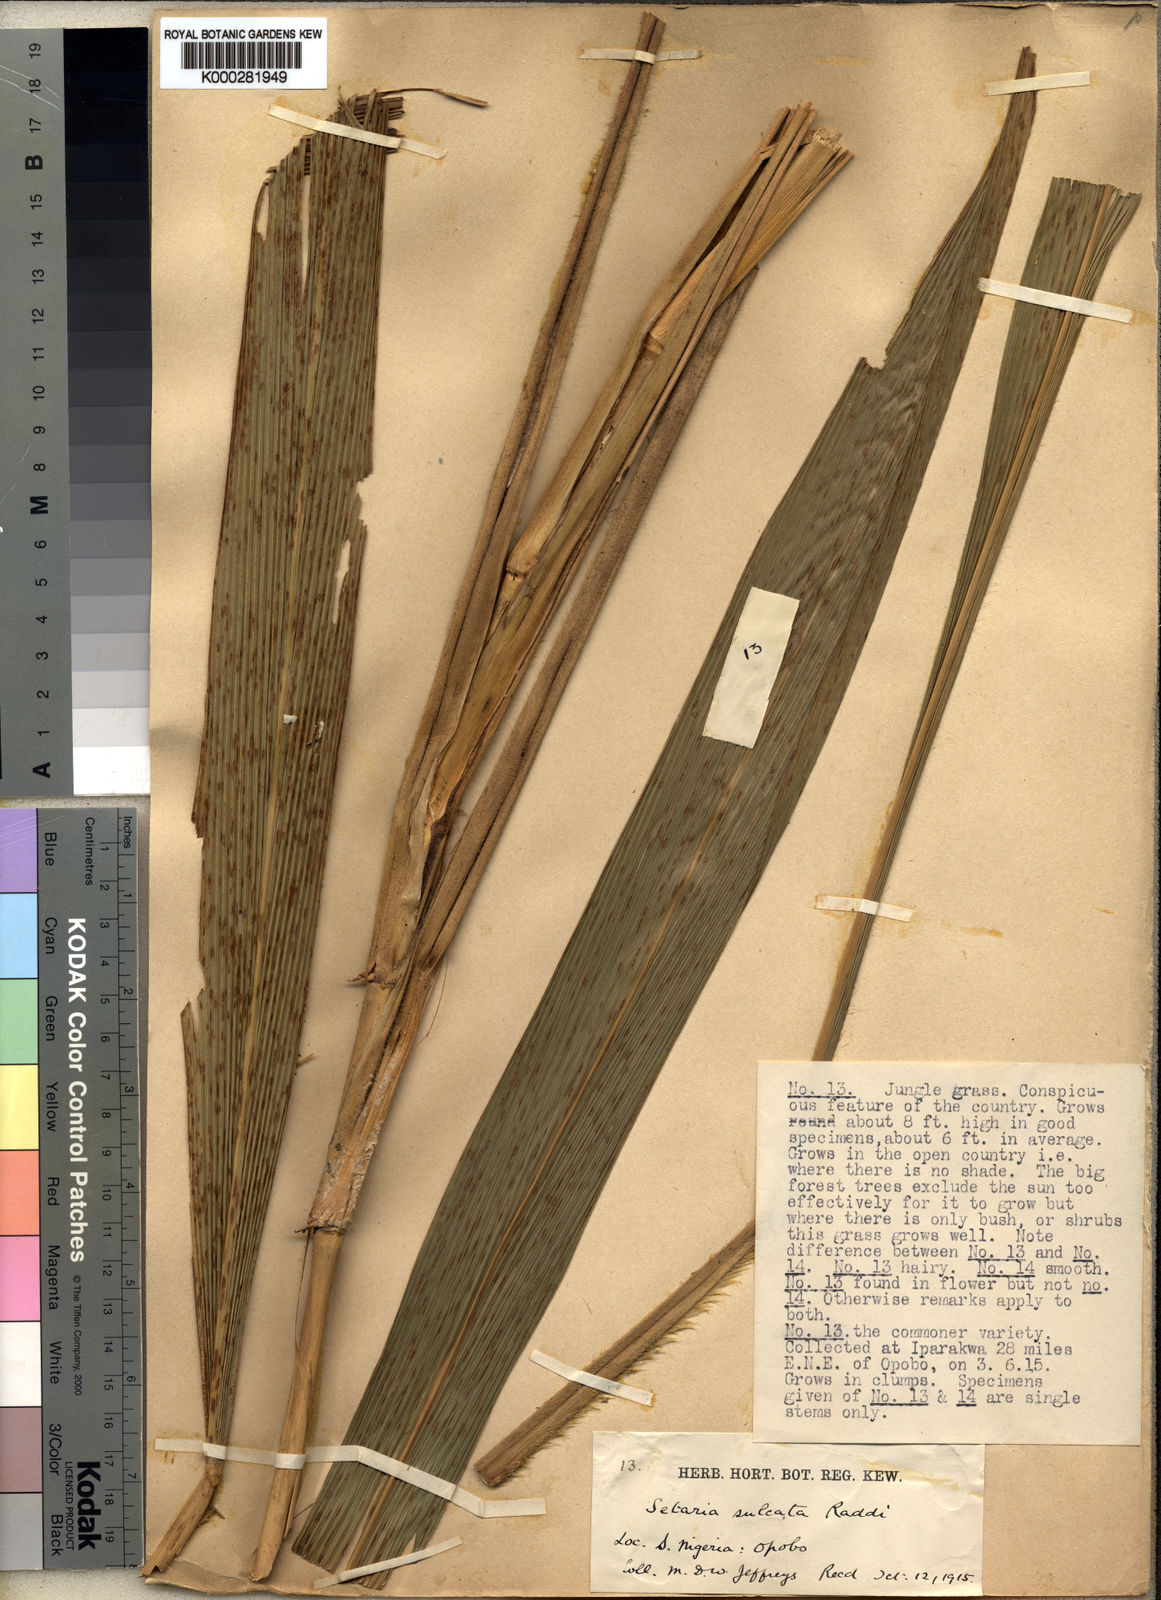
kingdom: Plantae
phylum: Tracheophyta
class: Liliopsida
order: Poales
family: Poaceae
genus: Setaria
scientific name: Setaria megaphylla
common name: Bigleaf bristlegrass
